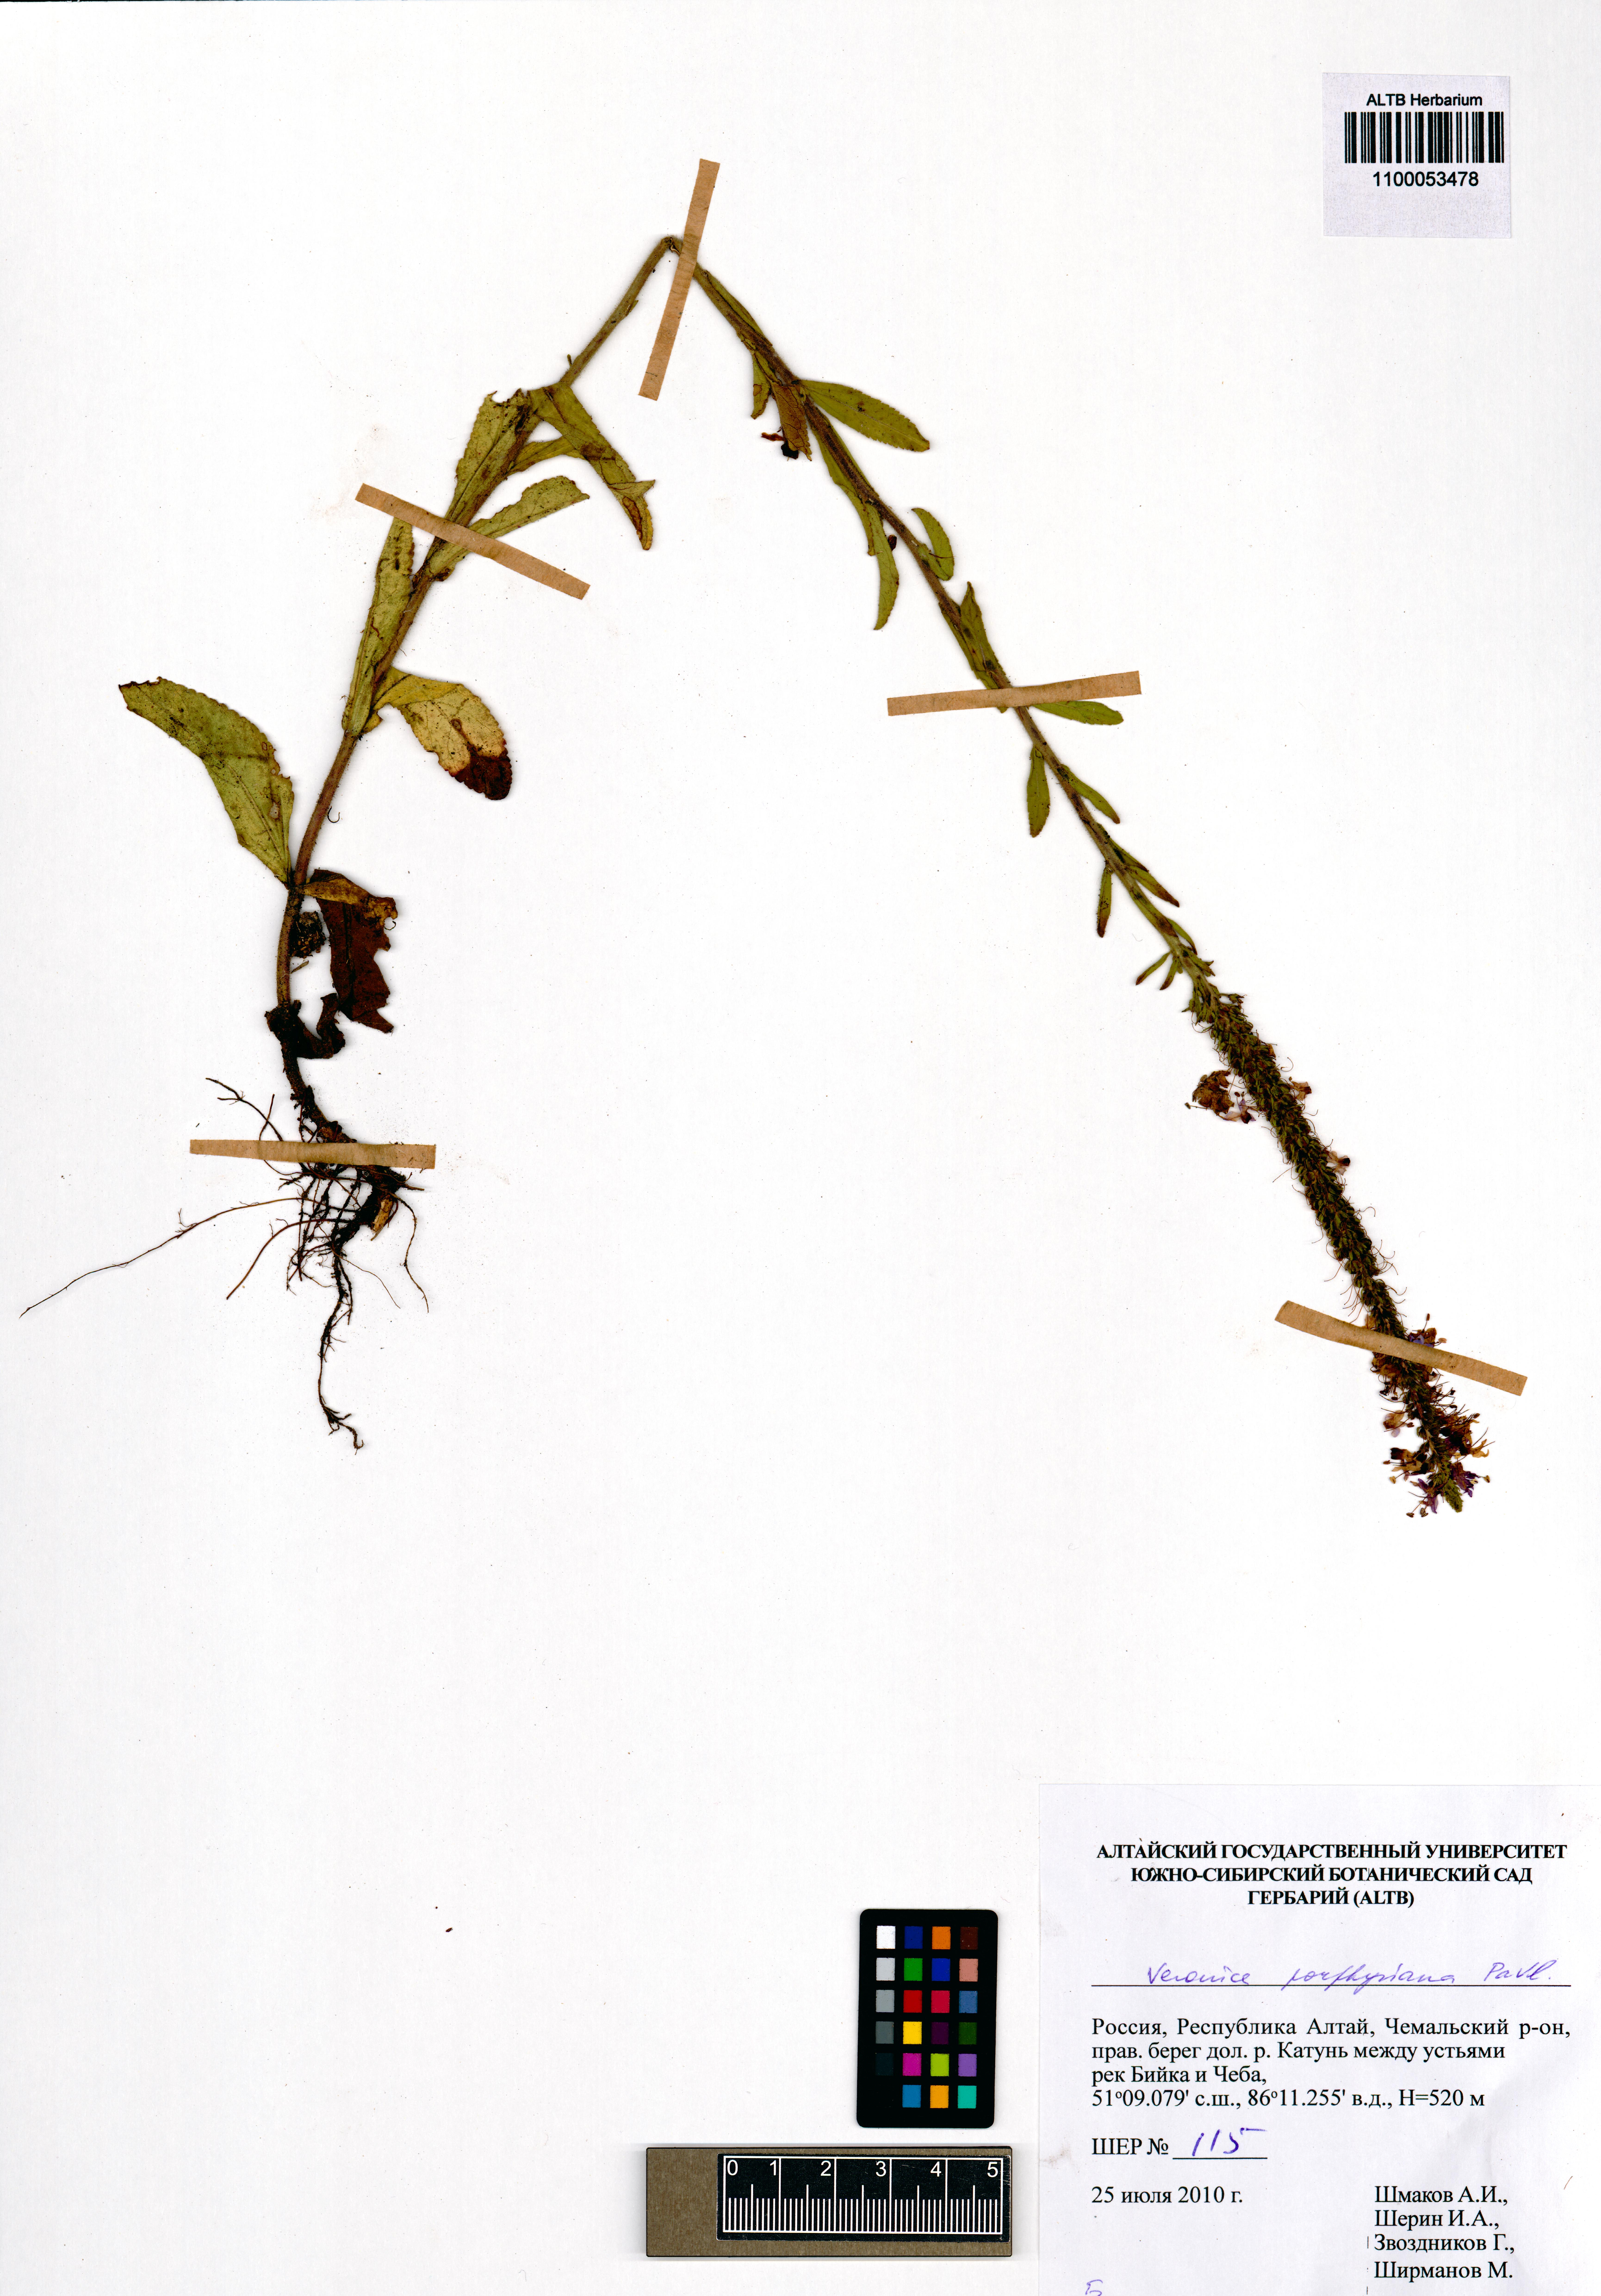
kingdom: Plantae
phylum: Tracheophyta
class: Magnoliopsida
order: Lamiales
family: Plantaginaceae
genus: Veronica
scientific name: Veronica porphyriana
